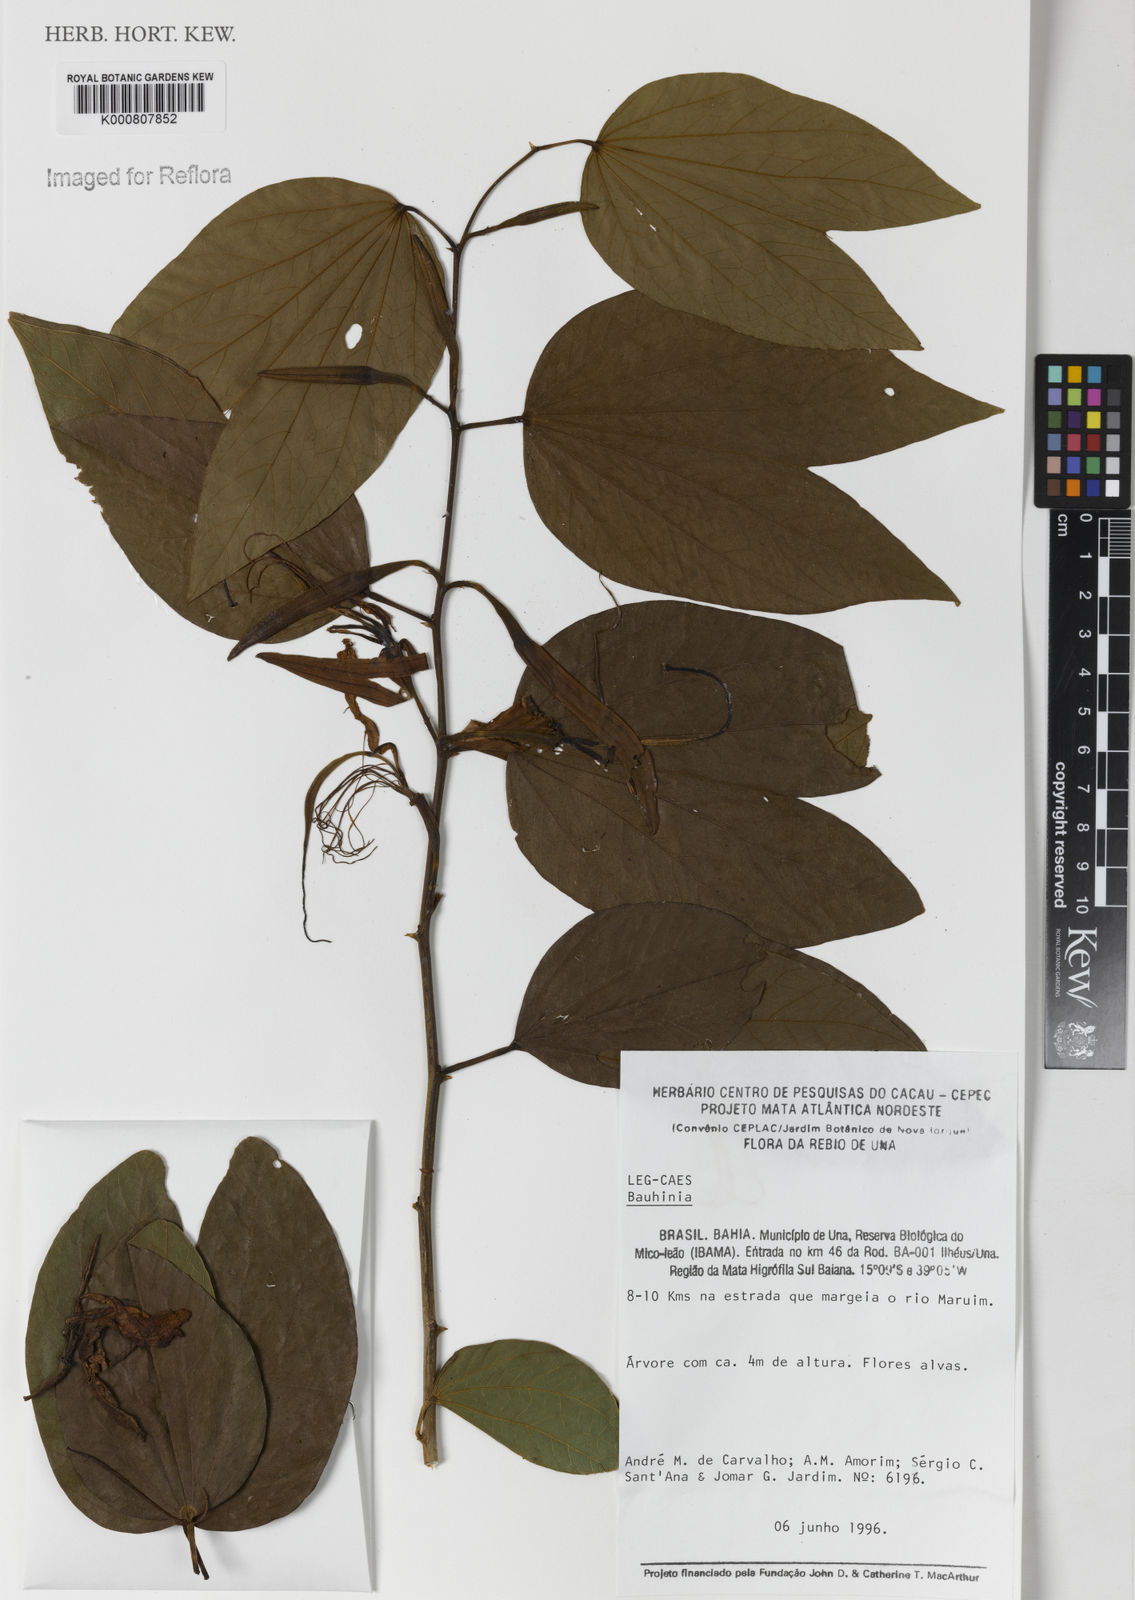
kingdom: Plantae
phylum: Tracheophyta
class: Magnoliopsida
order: Fabales
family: Fabaceae
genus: Bauhinia
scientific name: Bauhinia
